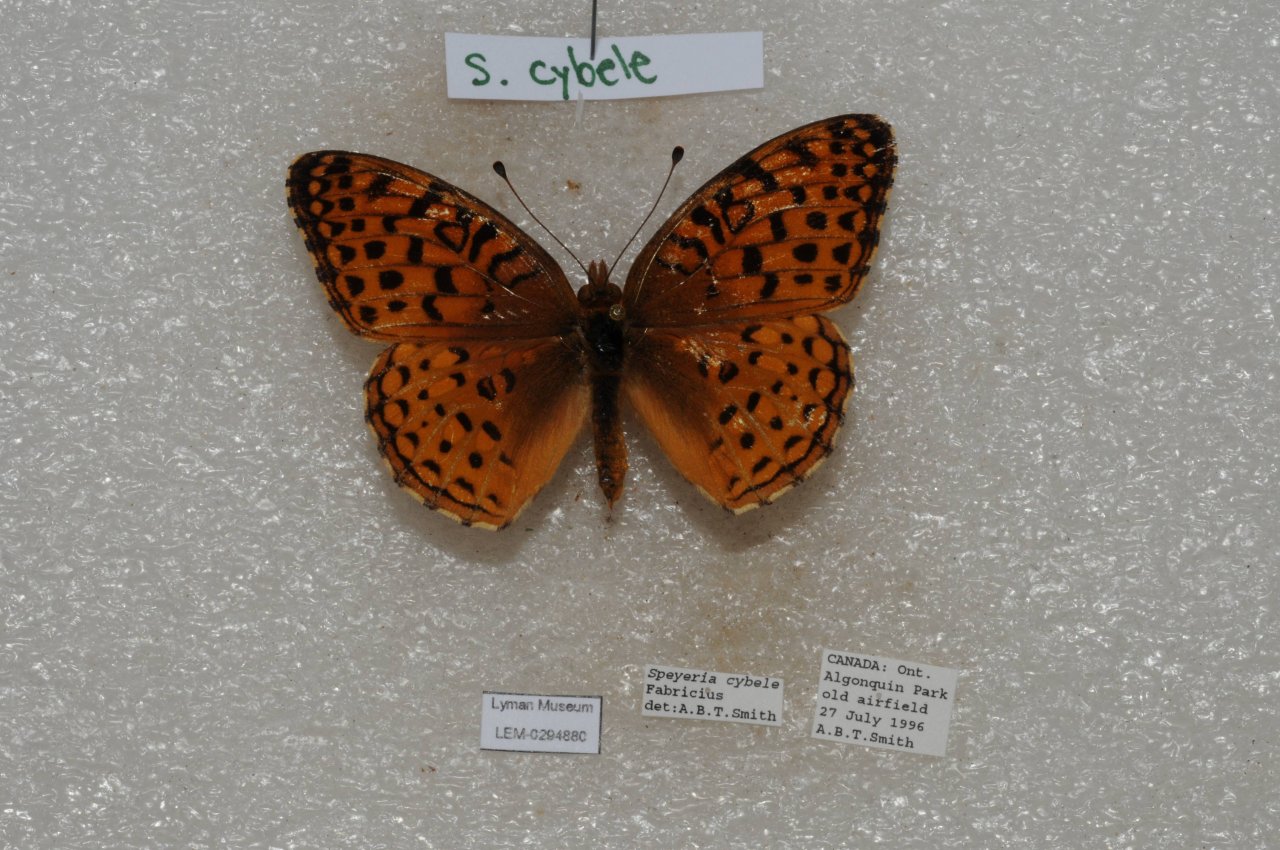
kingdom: Animalia
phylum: Arthropoda
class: Insecta
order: Lepidoptera
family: Nymphalidae
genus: Speyeria
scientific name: Speyeria cybele
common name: Great Spangled Fritillary
